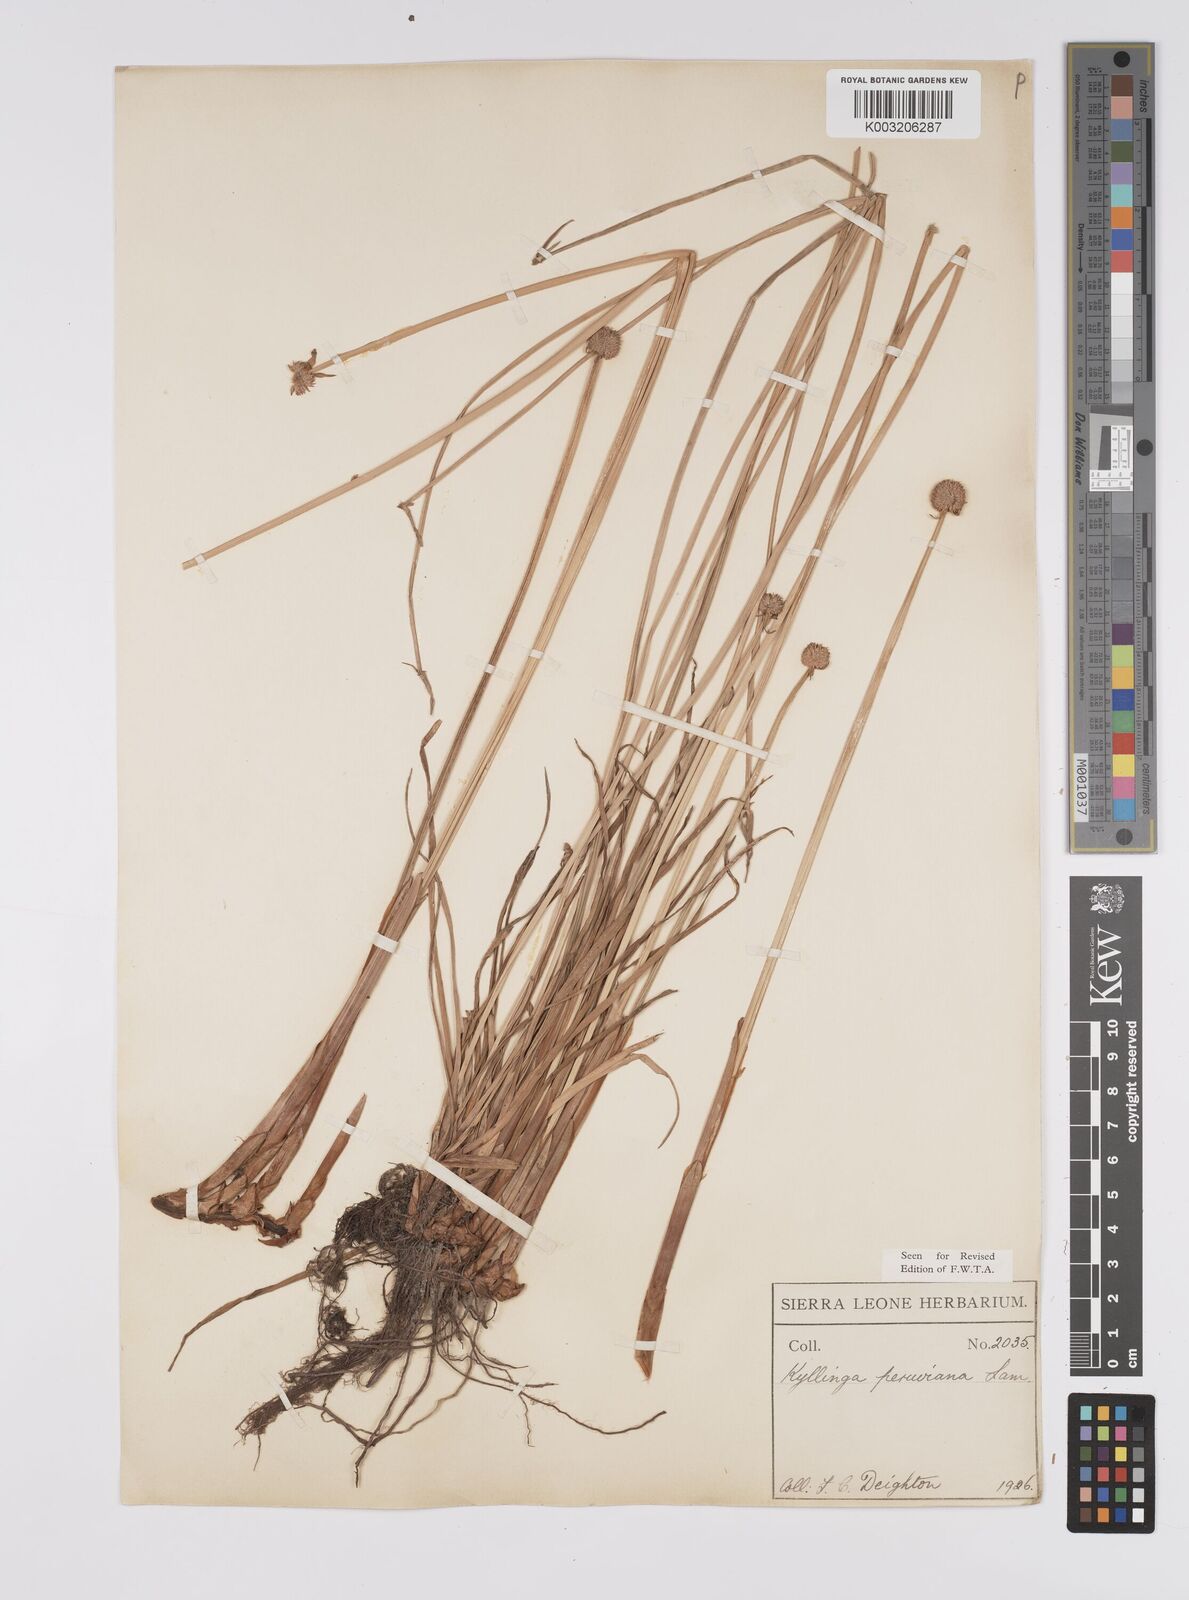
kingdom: Plantae
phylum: Tracheophyta
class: Liliopsida
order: Poales
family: Cyperaceae
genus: Cyperus
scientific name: Cyperus obtusatus
